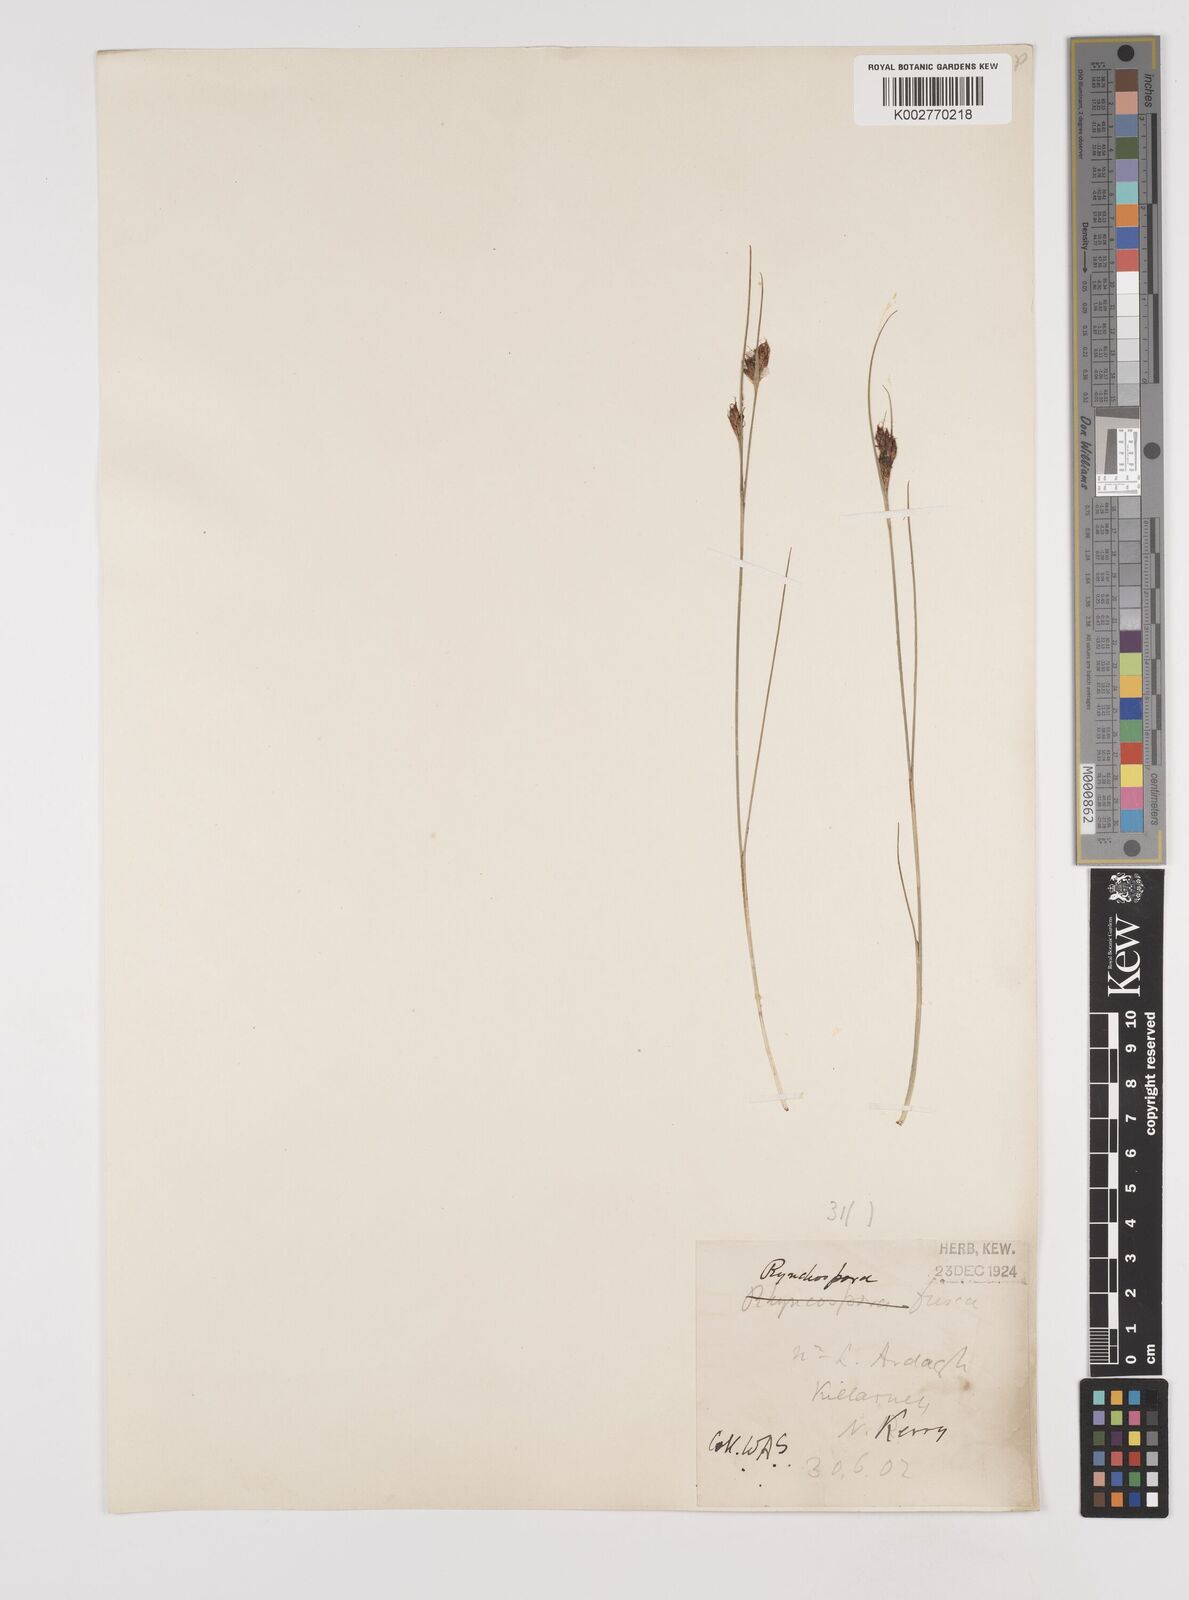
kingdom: Plantae
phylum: Tracheophyta
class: Liliopsida
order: Poales
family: Cyperaceae
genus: Rhynchospora
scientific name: Rhynchospora fusca
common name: Brown beak-sedge
